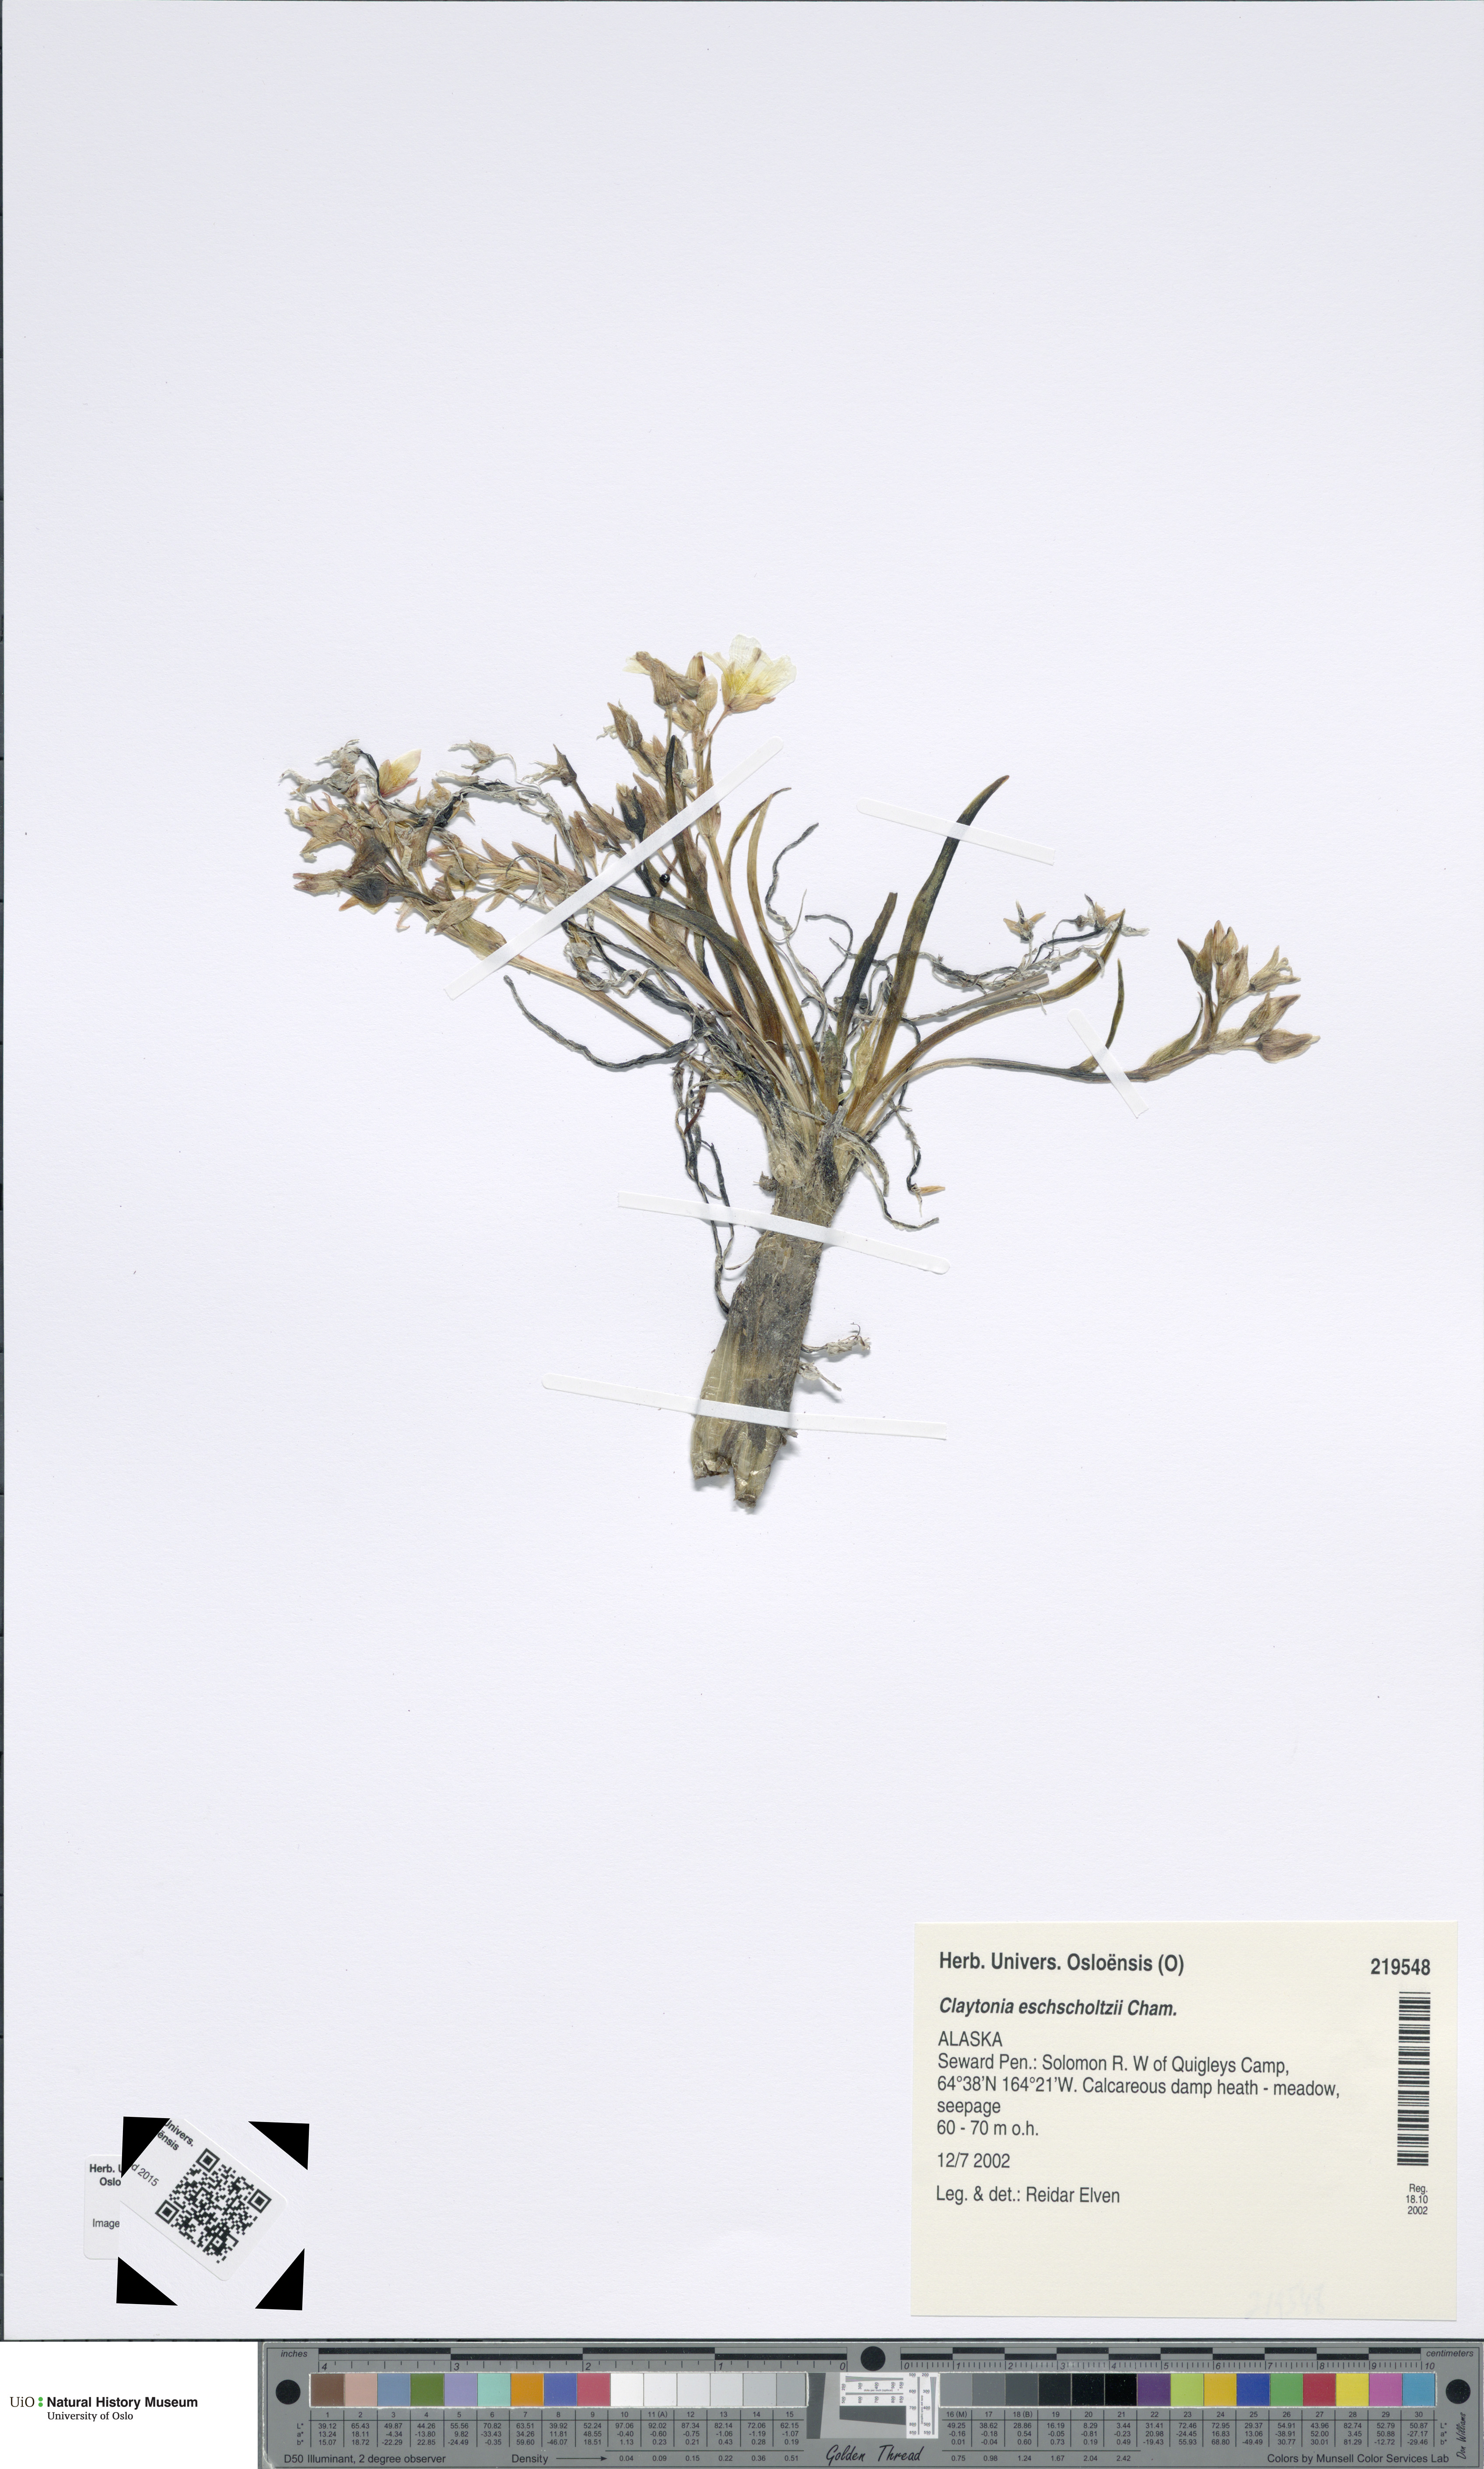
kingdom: Plantae
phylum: Tracheophyta
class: Magnoliopsida
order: Caryophyllales
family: Montiaceae
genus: Claytonia
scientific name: Claytonia acutifolia
